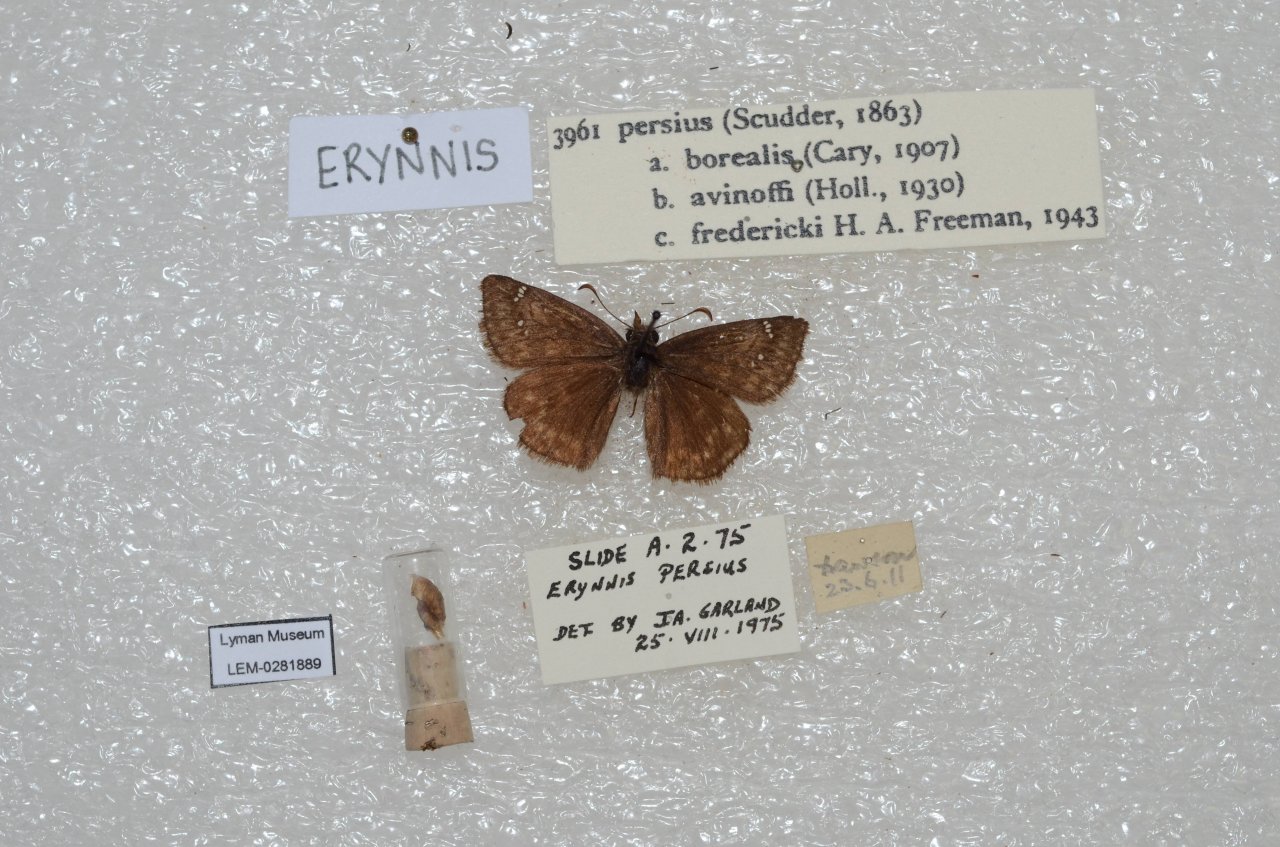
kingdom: Animalia
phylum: Arthropoda
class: Insecta
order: Lepidoptera
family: Hesperiidae
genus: Gesta
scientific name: Gesta
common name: Persius Duskywing
